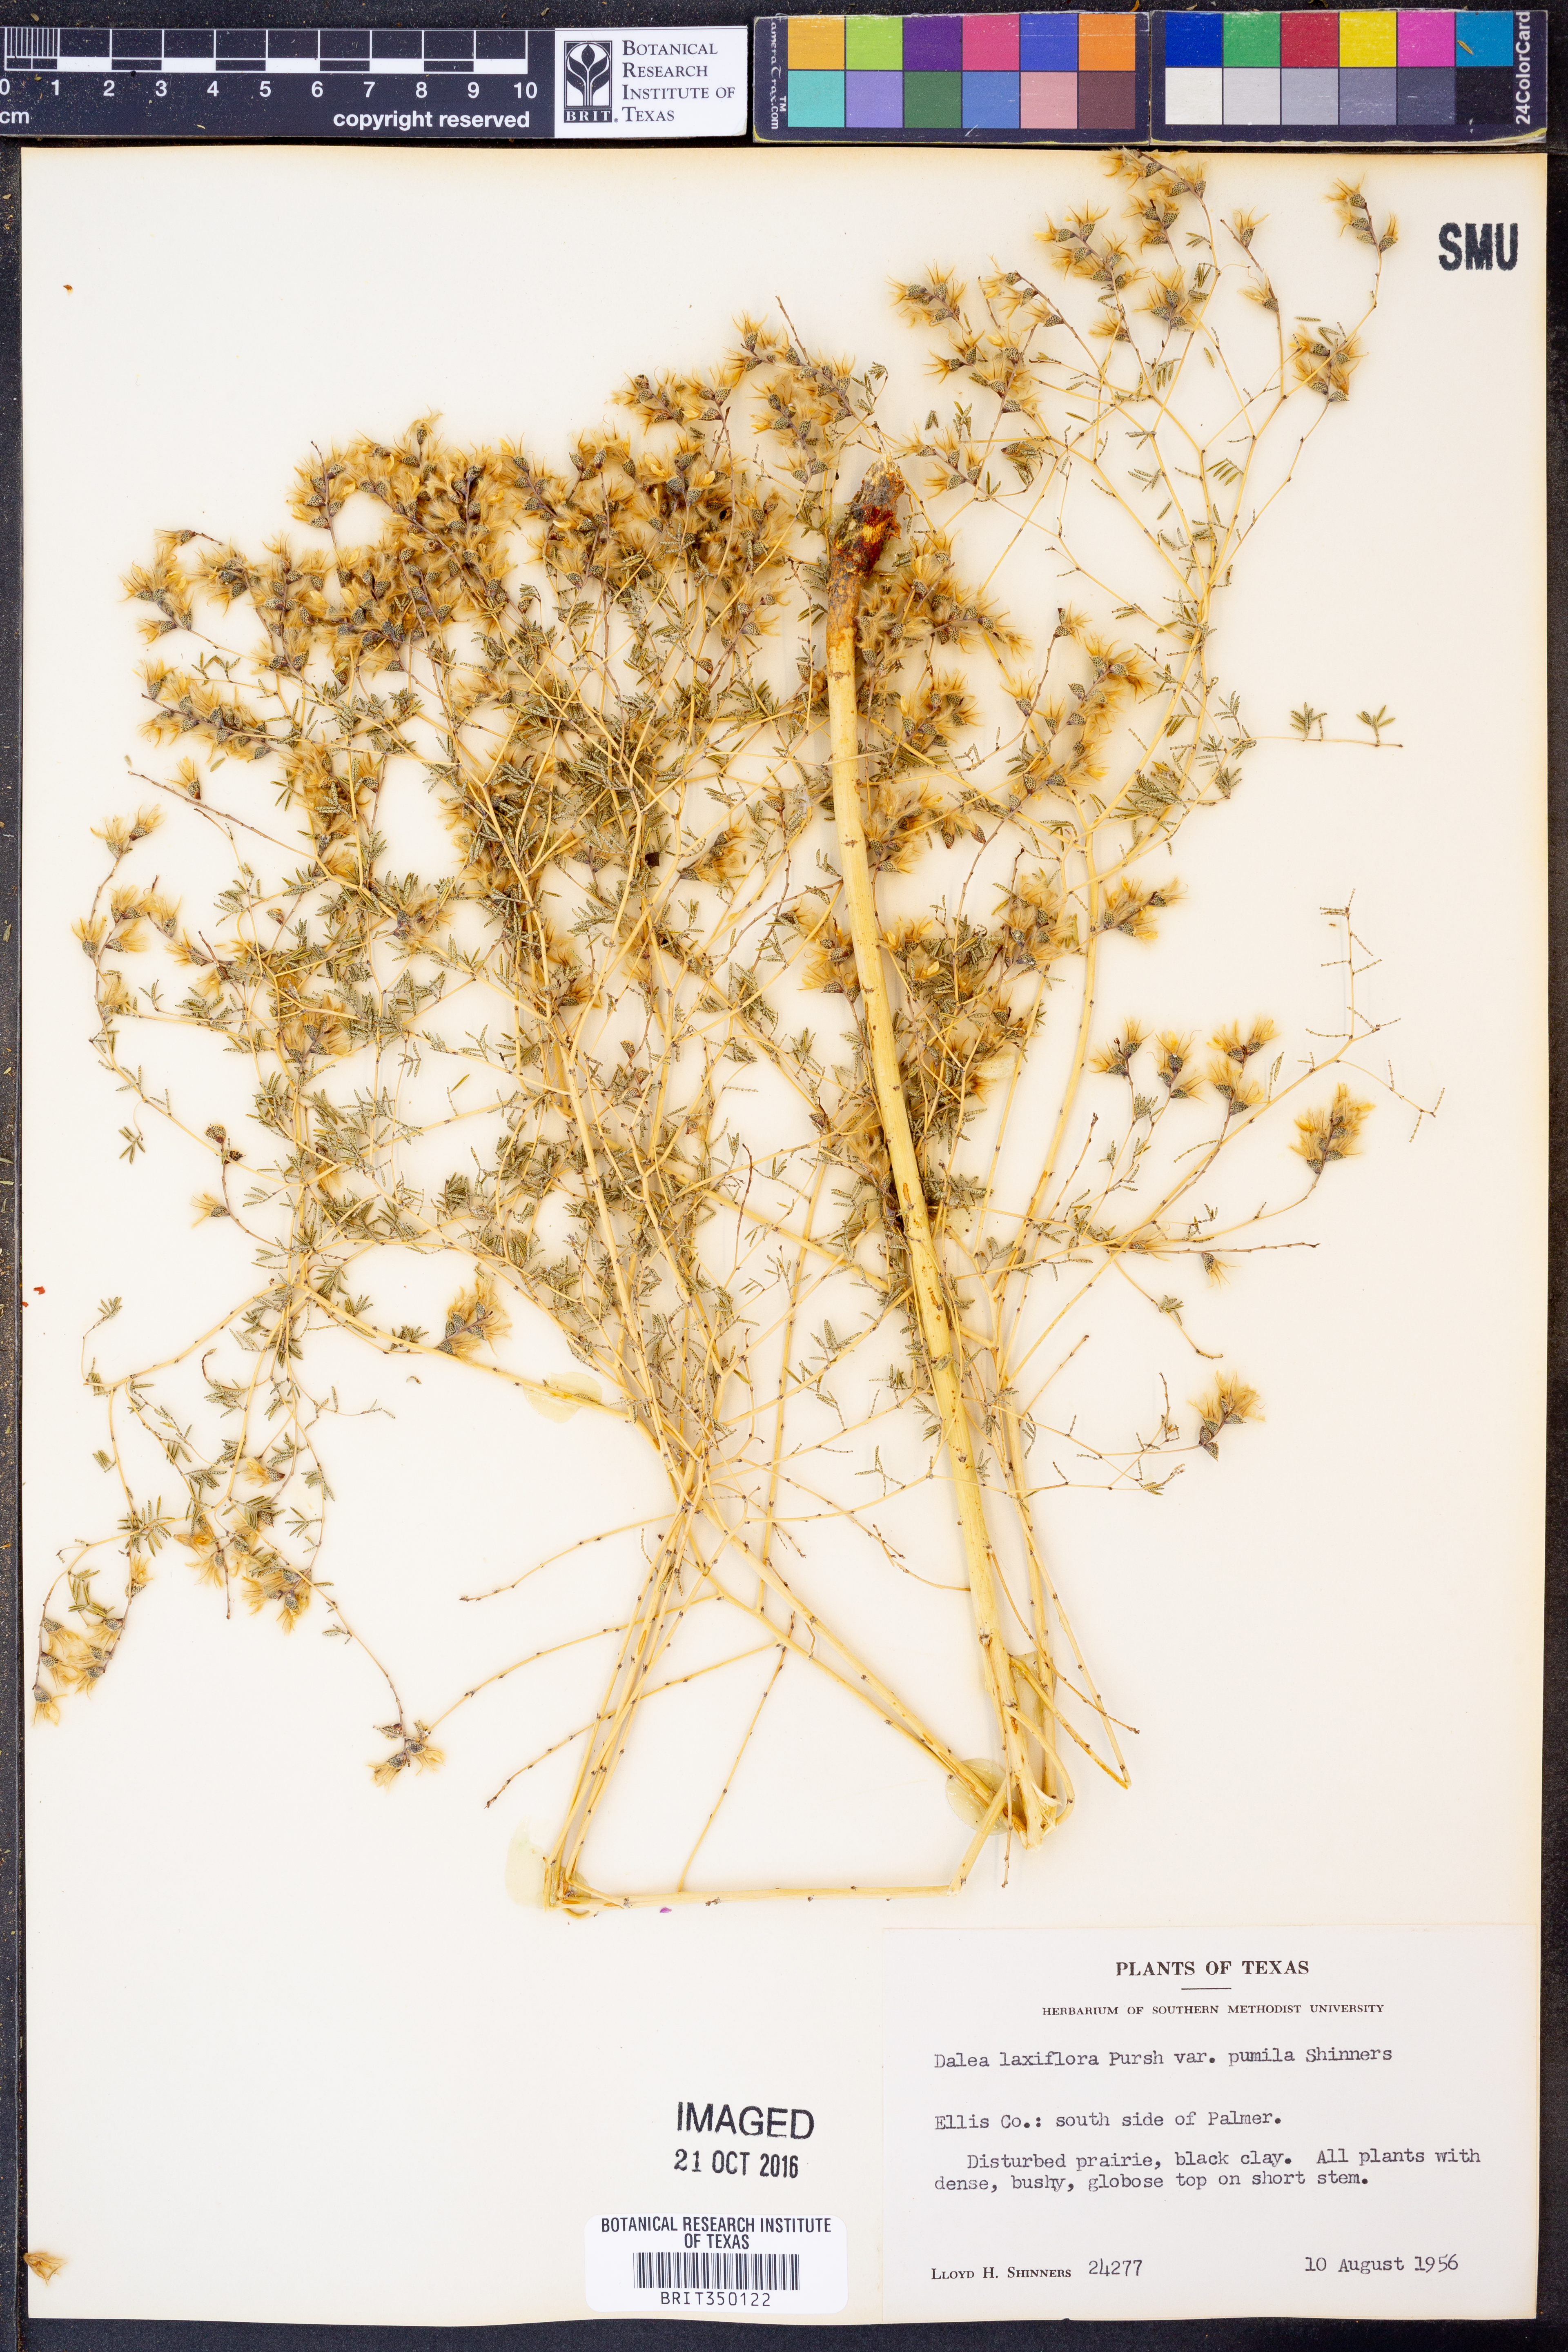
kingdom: Plantae
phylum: Tracheophyta
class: Magnoliopsida
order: Fabales
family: Fabaceae
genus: Dalea
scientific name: Dalea hegewischiana
